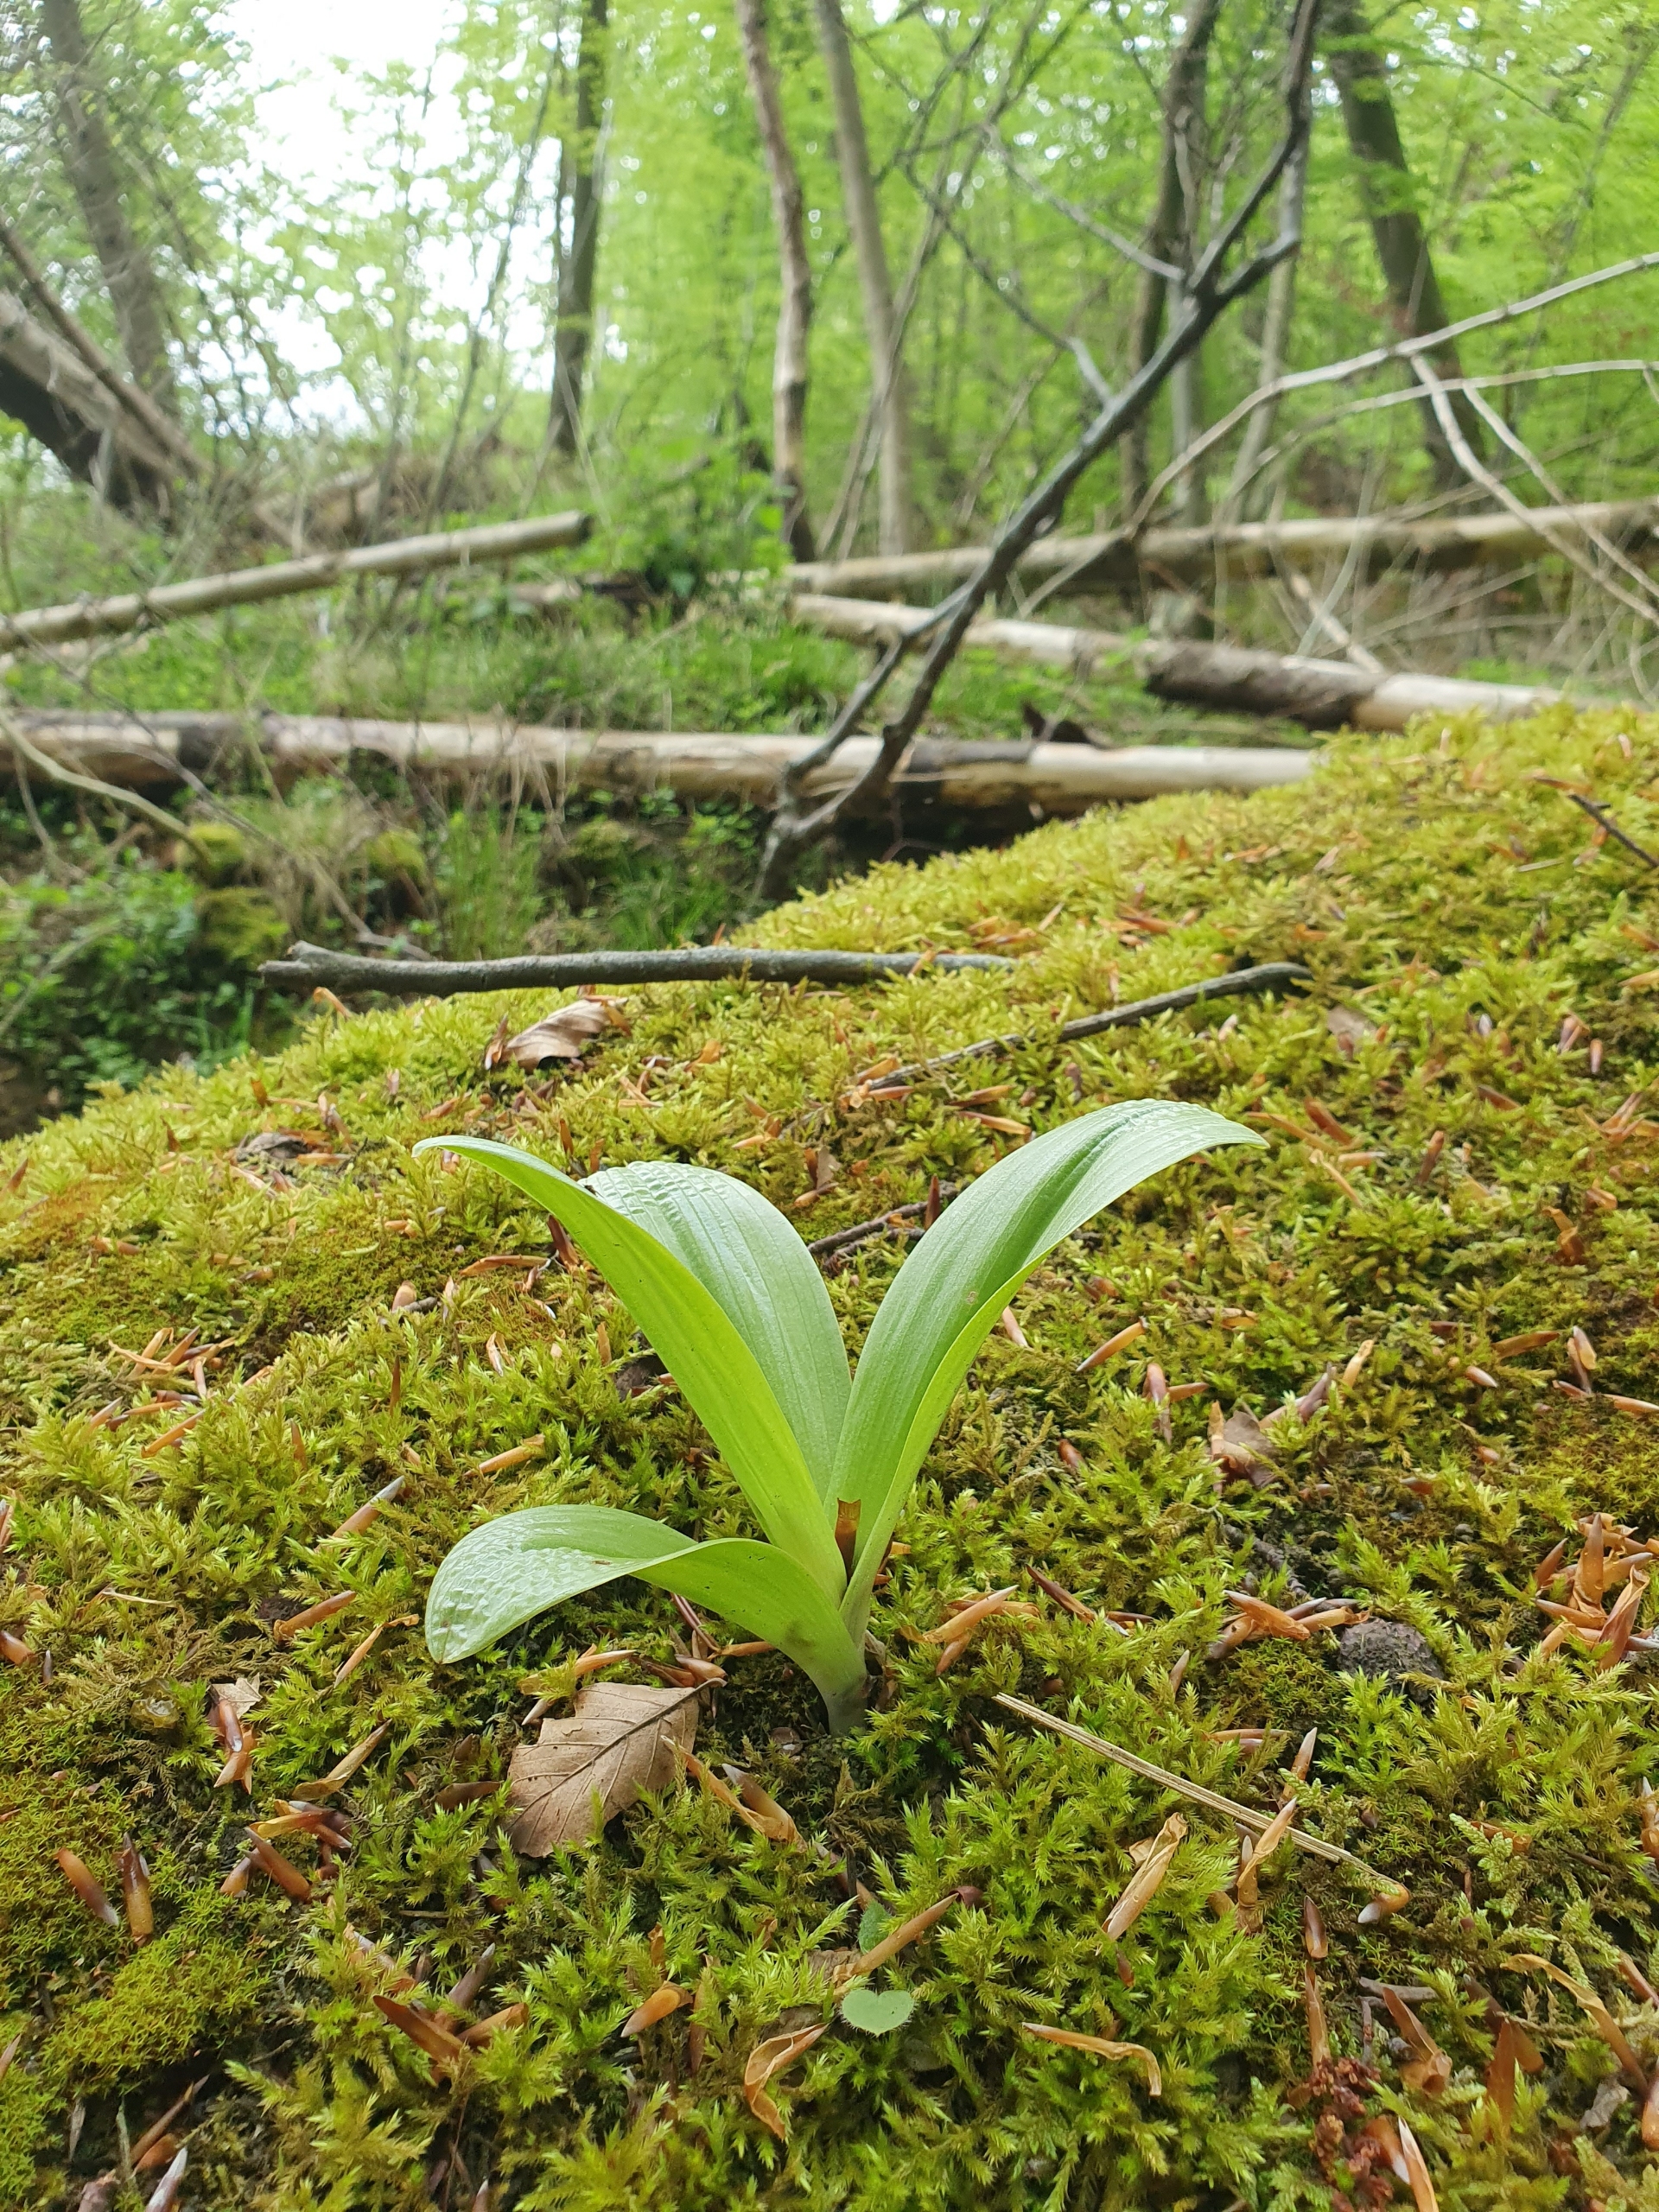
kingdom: Plantae
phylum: Tracheophyta
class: Liliopsida
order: Asparagales
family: Orchidaceae
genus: Orchis
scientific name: Orchis purpurea
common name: Stor gøgeurt
